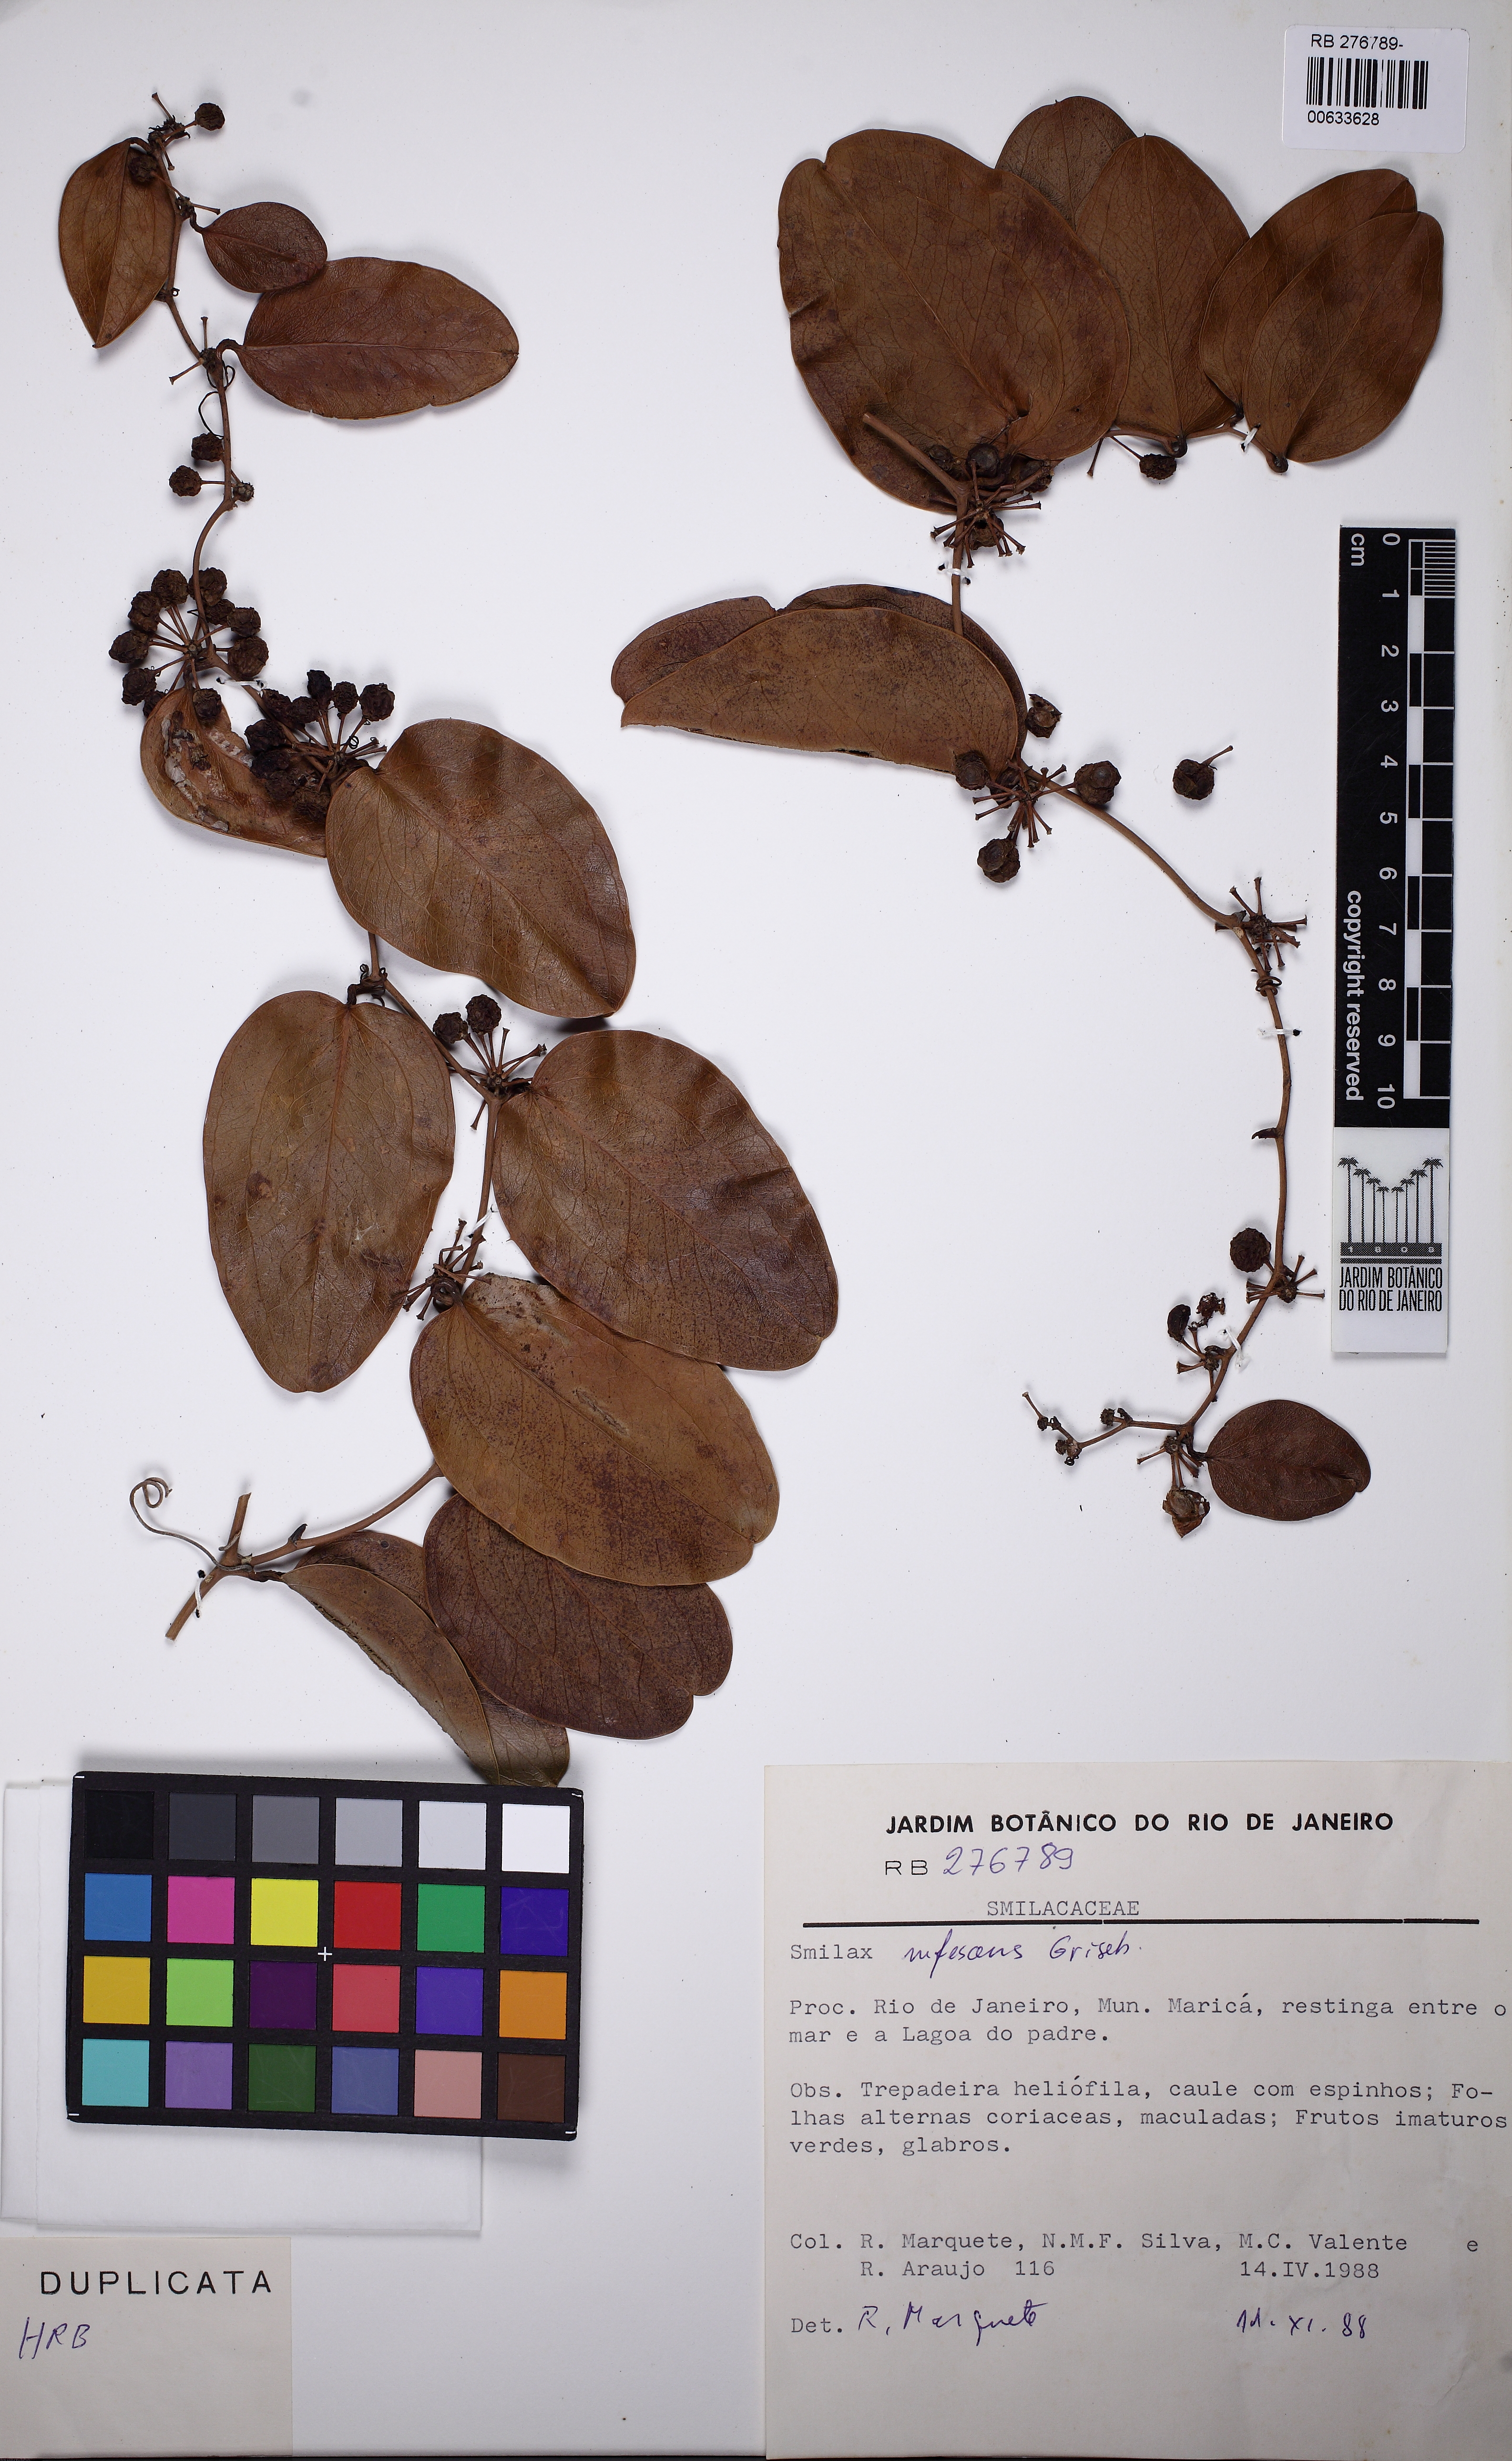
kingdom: Plantae
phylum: Tracheophyta
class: Liliopsida
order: Liliales
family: Smilacaceae
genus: Smilax
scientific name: Smilax rufescens
